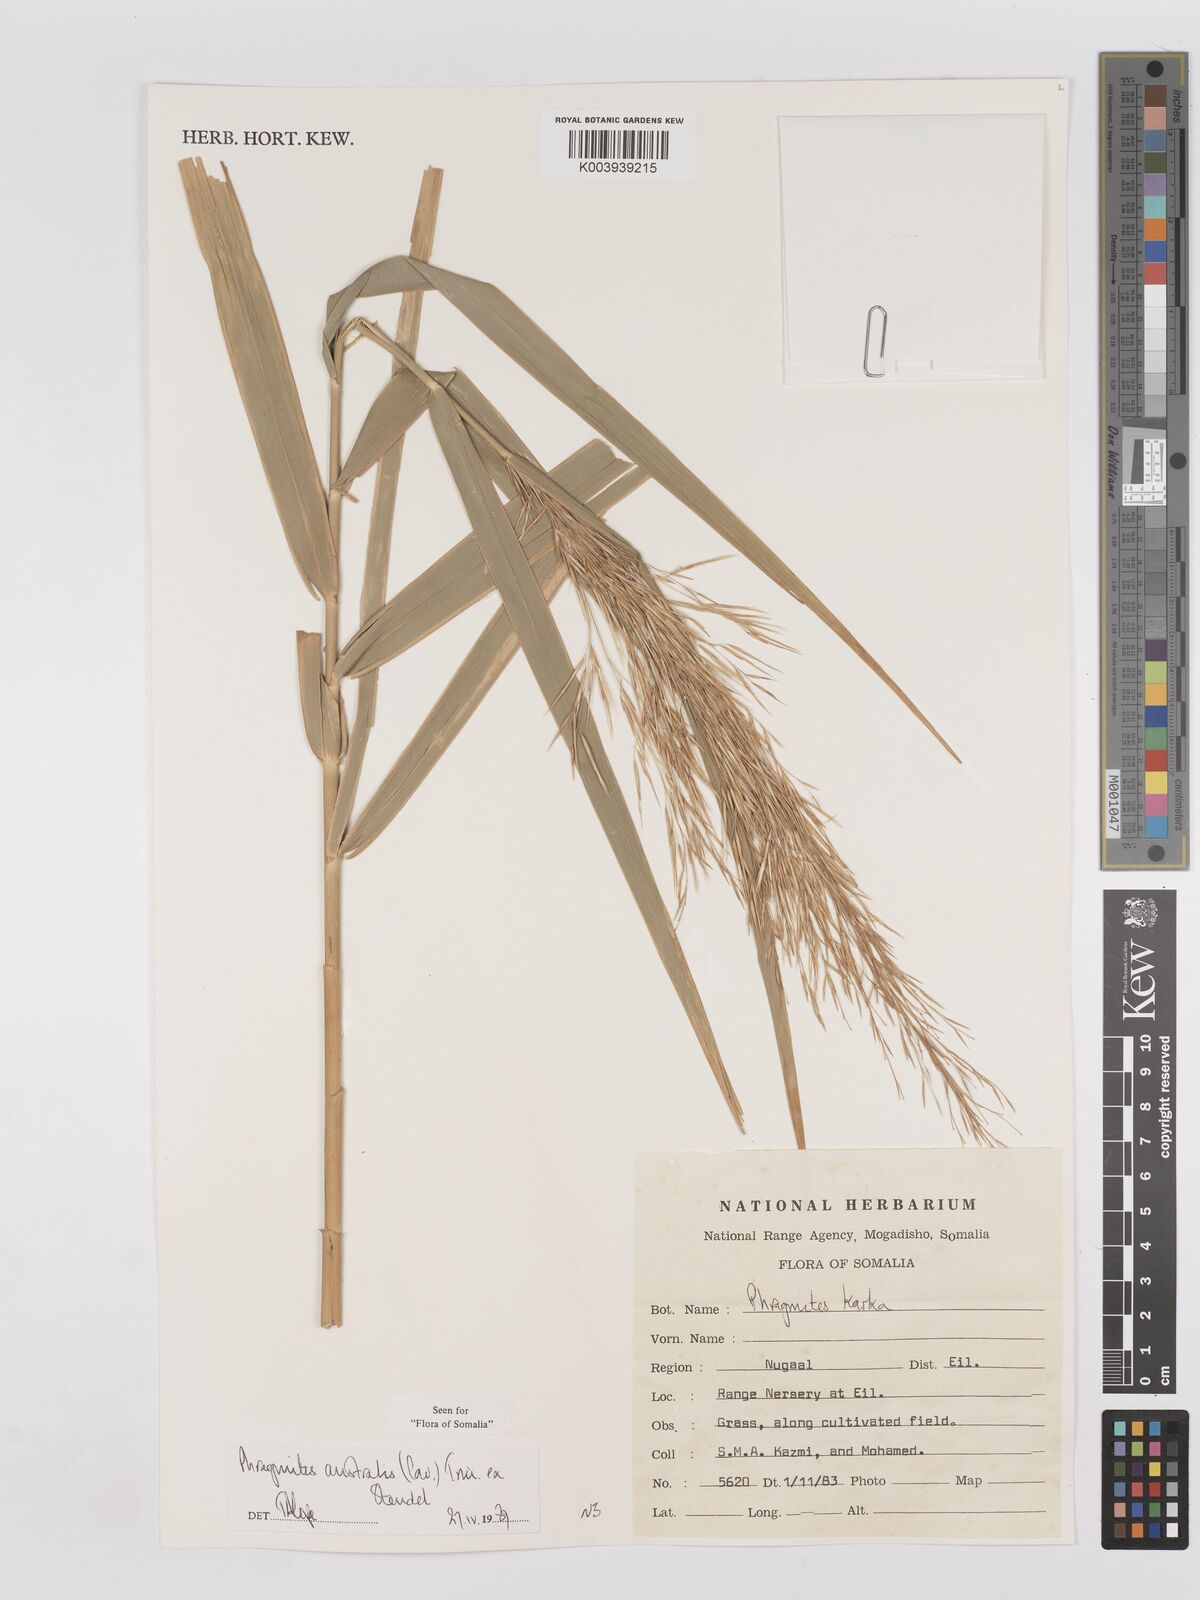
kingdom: Plantae
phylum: Tracheophyta
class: Liliopsida
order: Poales
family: Poaceae
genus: Phragmites
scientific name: Phragmites australis
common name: Common reed
